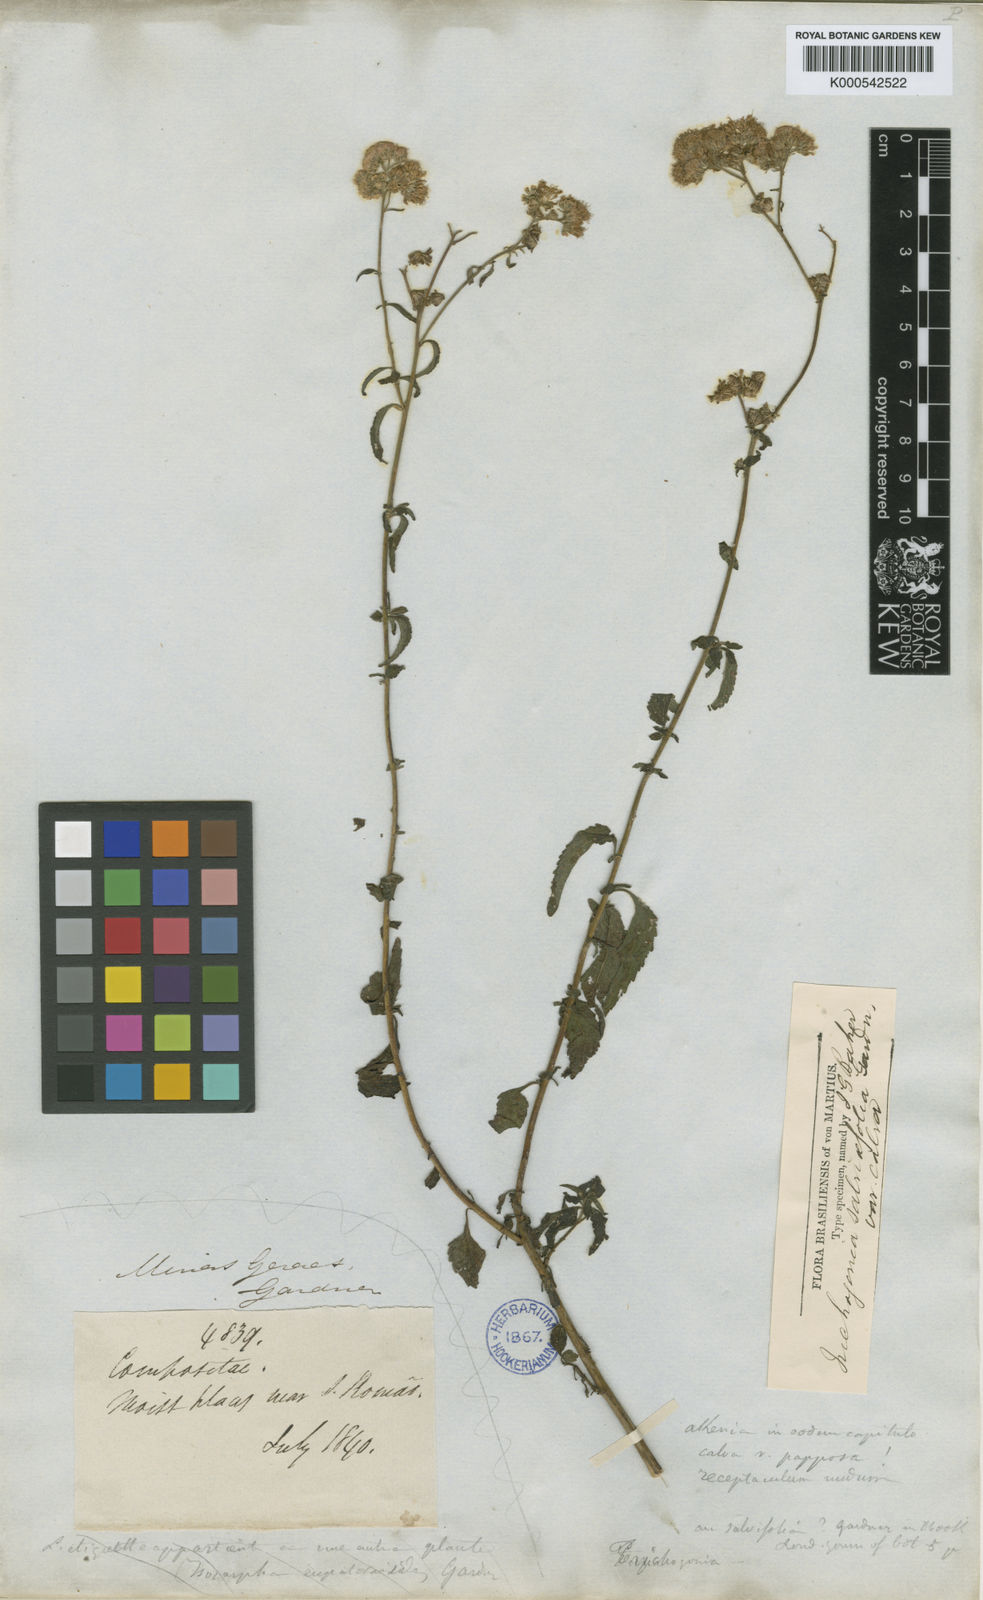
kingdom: Plantae
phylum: Tracheophyta
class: Magnoliopsida
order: Asterales
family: Asteraceae
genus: Trichogonia
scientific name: Trichogonia menthifolia
